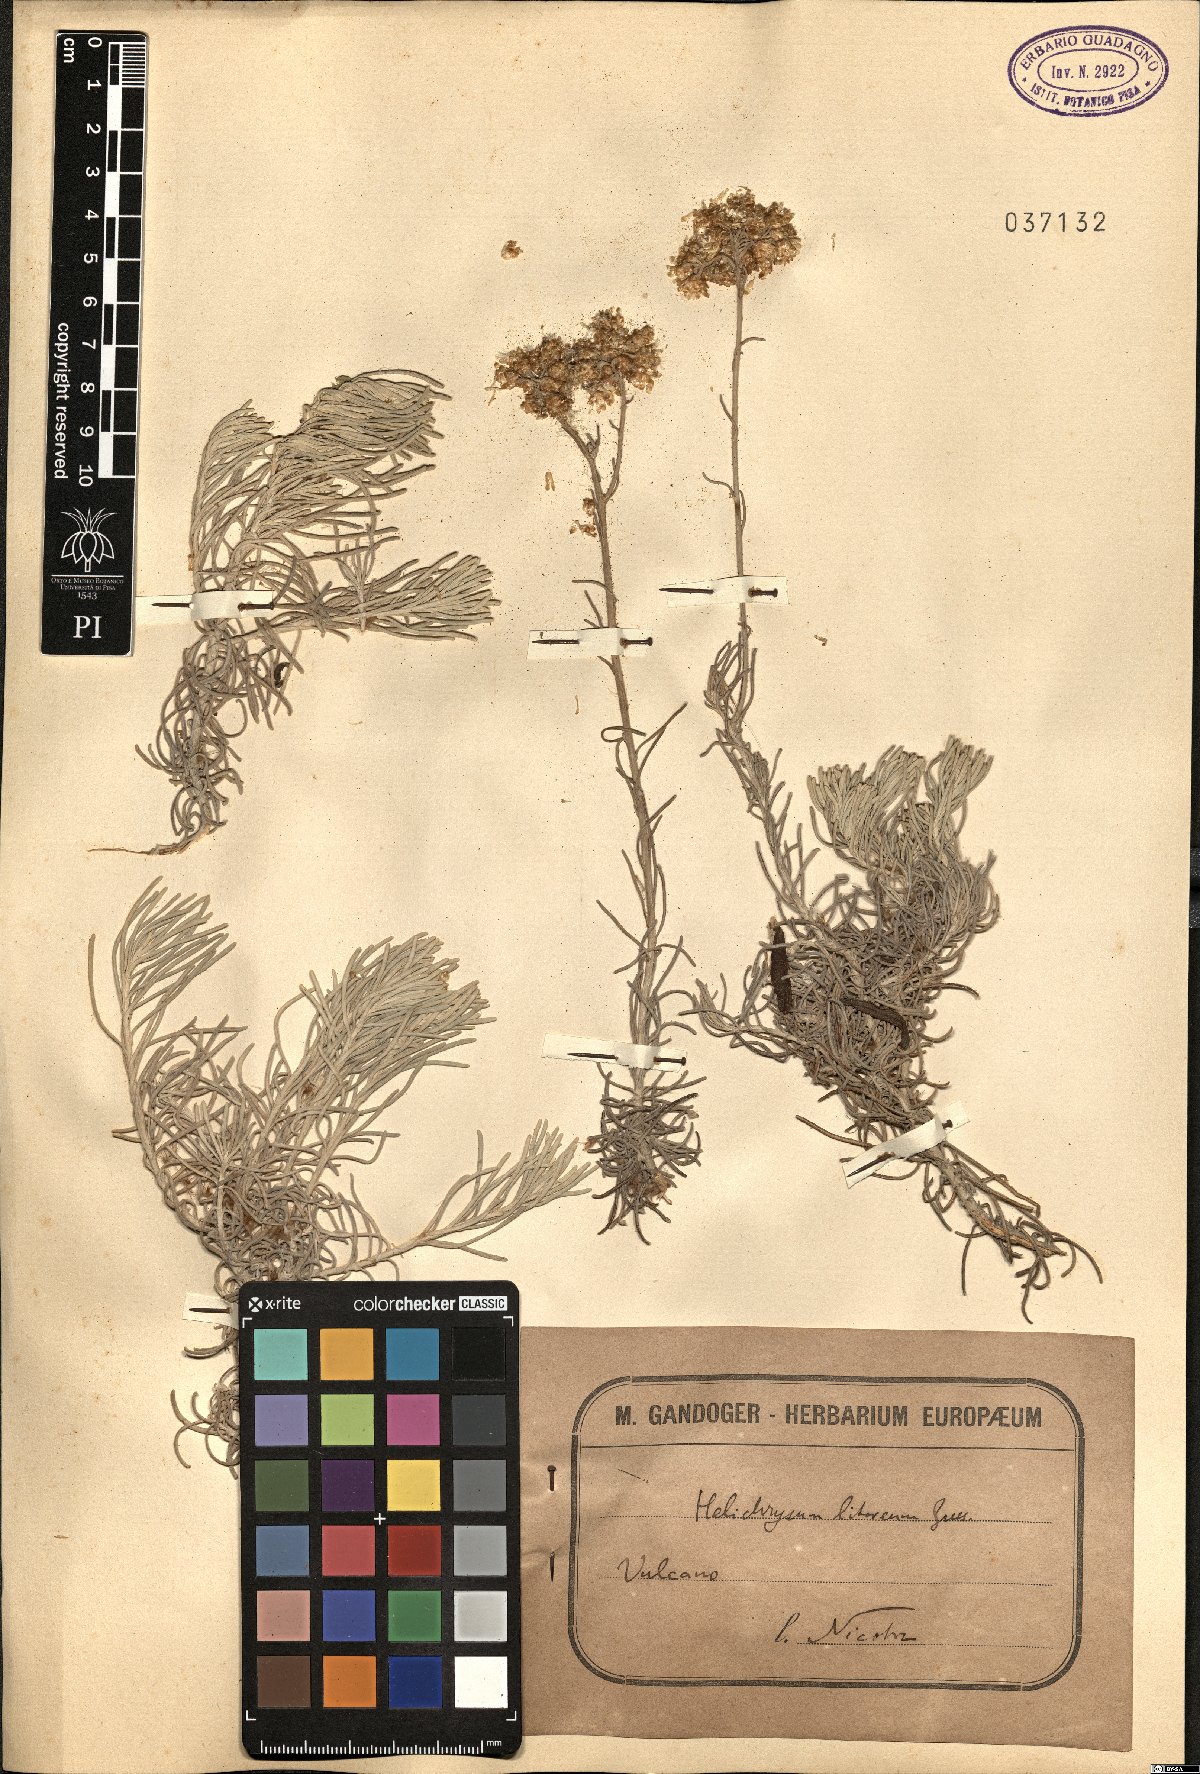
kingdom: Plantae
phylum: Tracheophyta
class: Magnoliopsida
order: Asterales
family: Asteraceae
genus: Helichrysum
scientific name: Helichrysum litoreum
